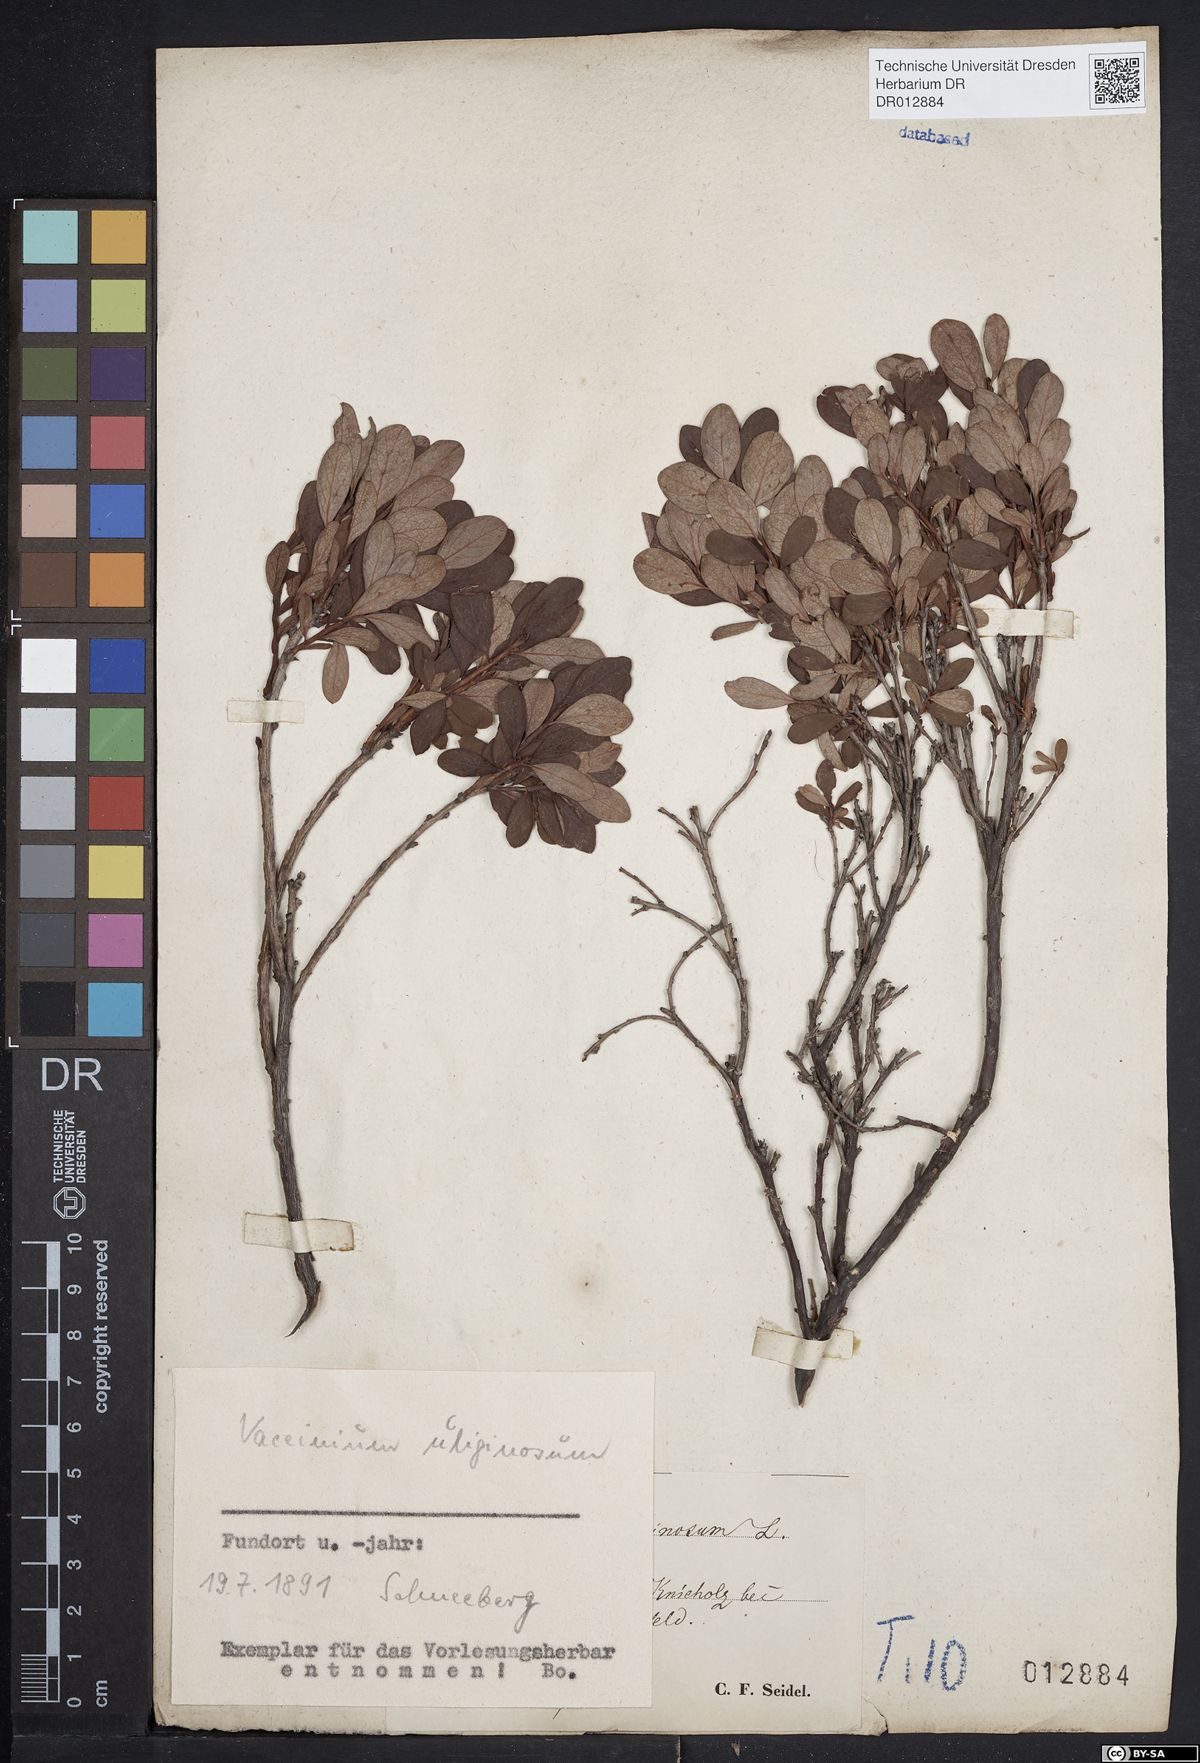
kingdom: Plantae
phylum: Tracheophyta
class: Magnoliopsida
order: Ericales
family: Ericaceae
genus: Vaccinium
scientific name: Vaccinium uliginosum
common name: Bog bilberry
